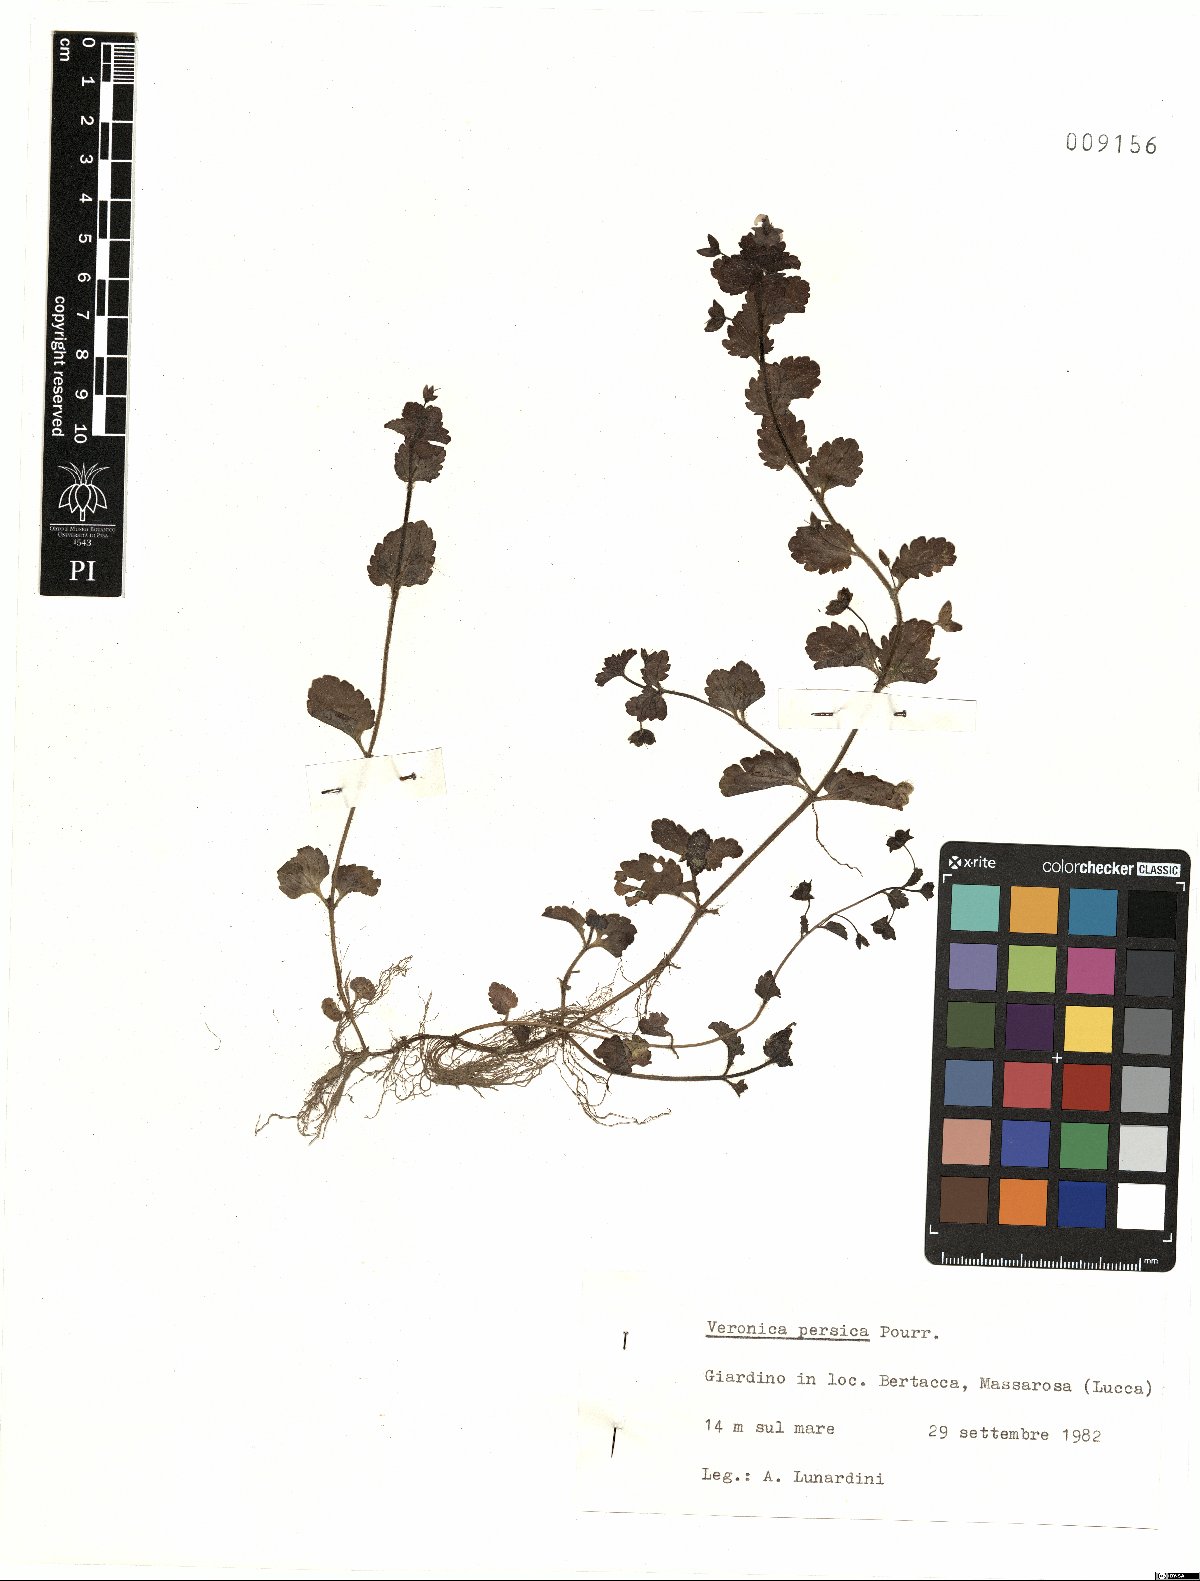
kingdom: Plantae
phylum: Tracheophyta
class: Magnoliopsida
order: Lamiales
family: Plantaginaceae
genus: Veronica
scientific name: Veronica persica
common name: Common field-speedwell
